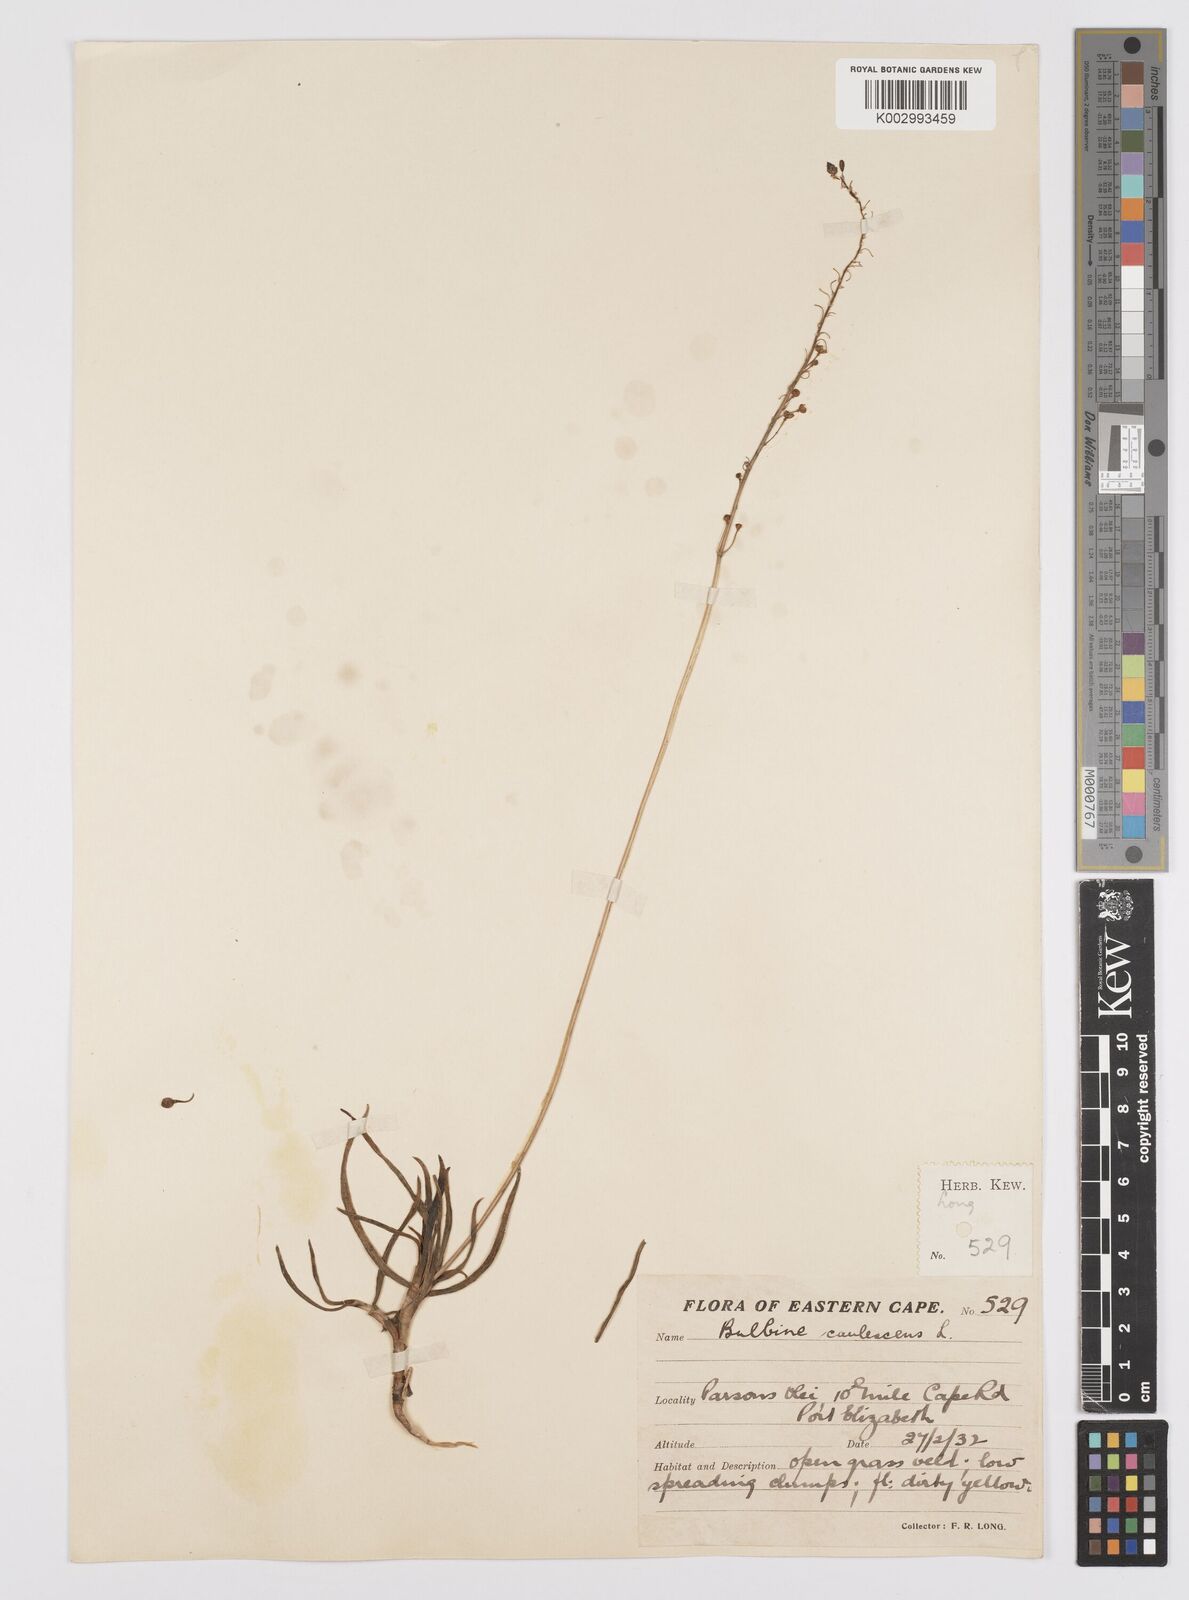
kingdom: Plantae
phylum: Tracheophyta
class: Liliopsida
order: Asparagales
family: Asphodelaceae
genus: Bulbine
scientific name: Bulbine frutescens
